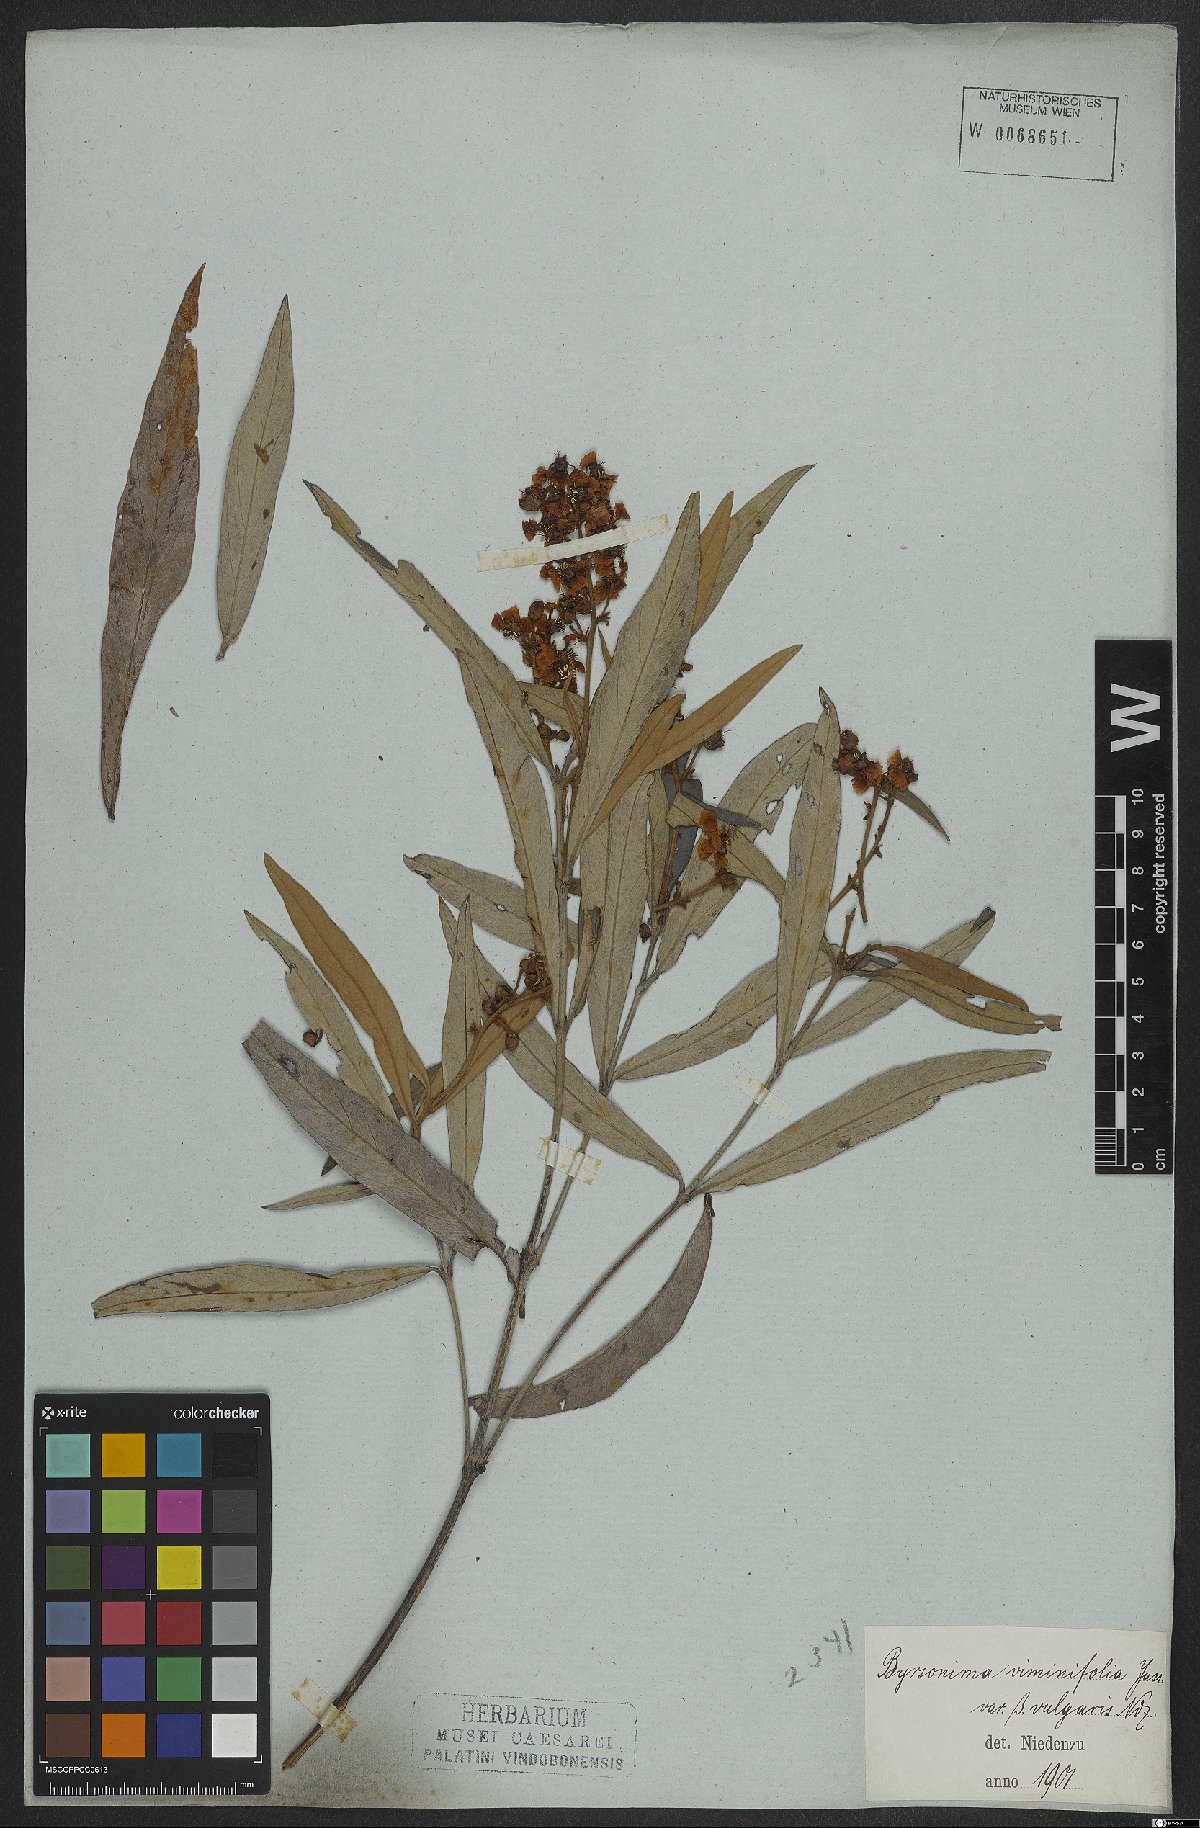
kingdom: Plantae
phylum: Tracheophyta
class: Magnoliopsida
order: Malpighiales
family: Malpighiaceae
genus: Byrsonima
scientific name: Byrsonima viminifolia
